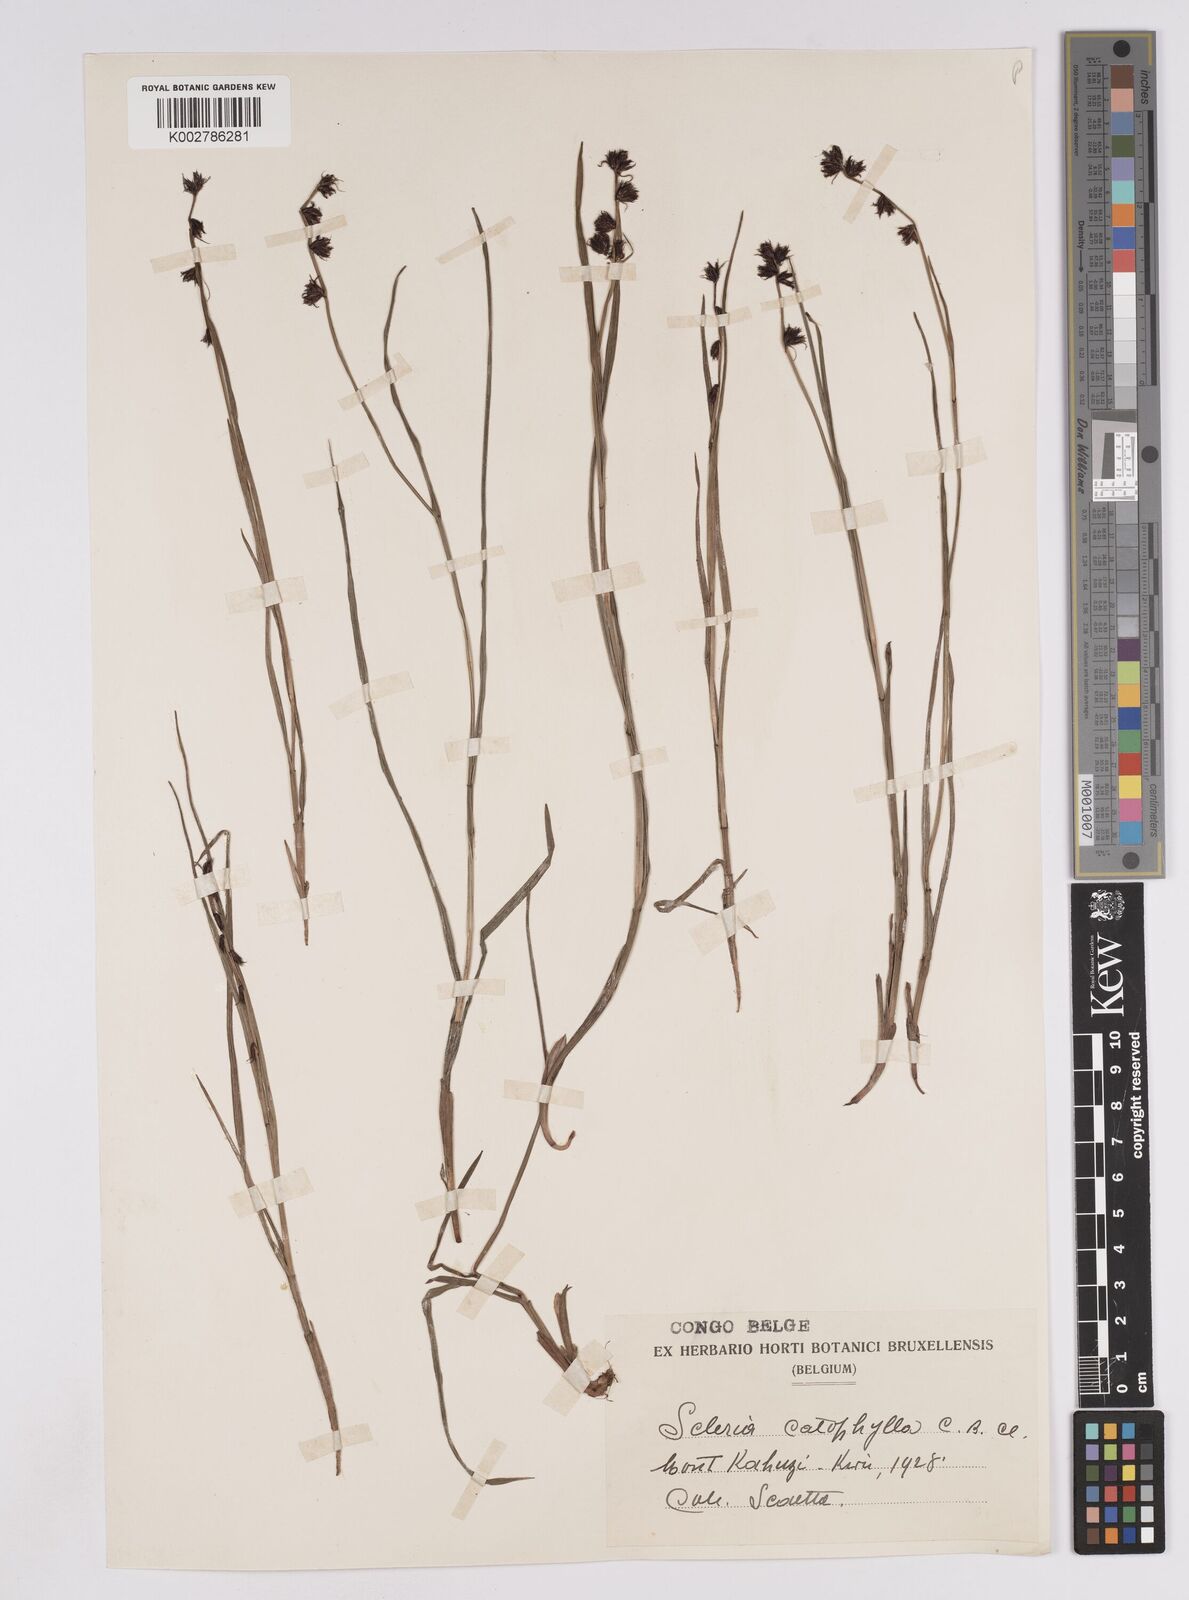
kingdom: Plantae
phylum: Tracheophyta
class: Liliopsida
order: Poales
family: Cyperaceae
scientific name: Cyperaceae
